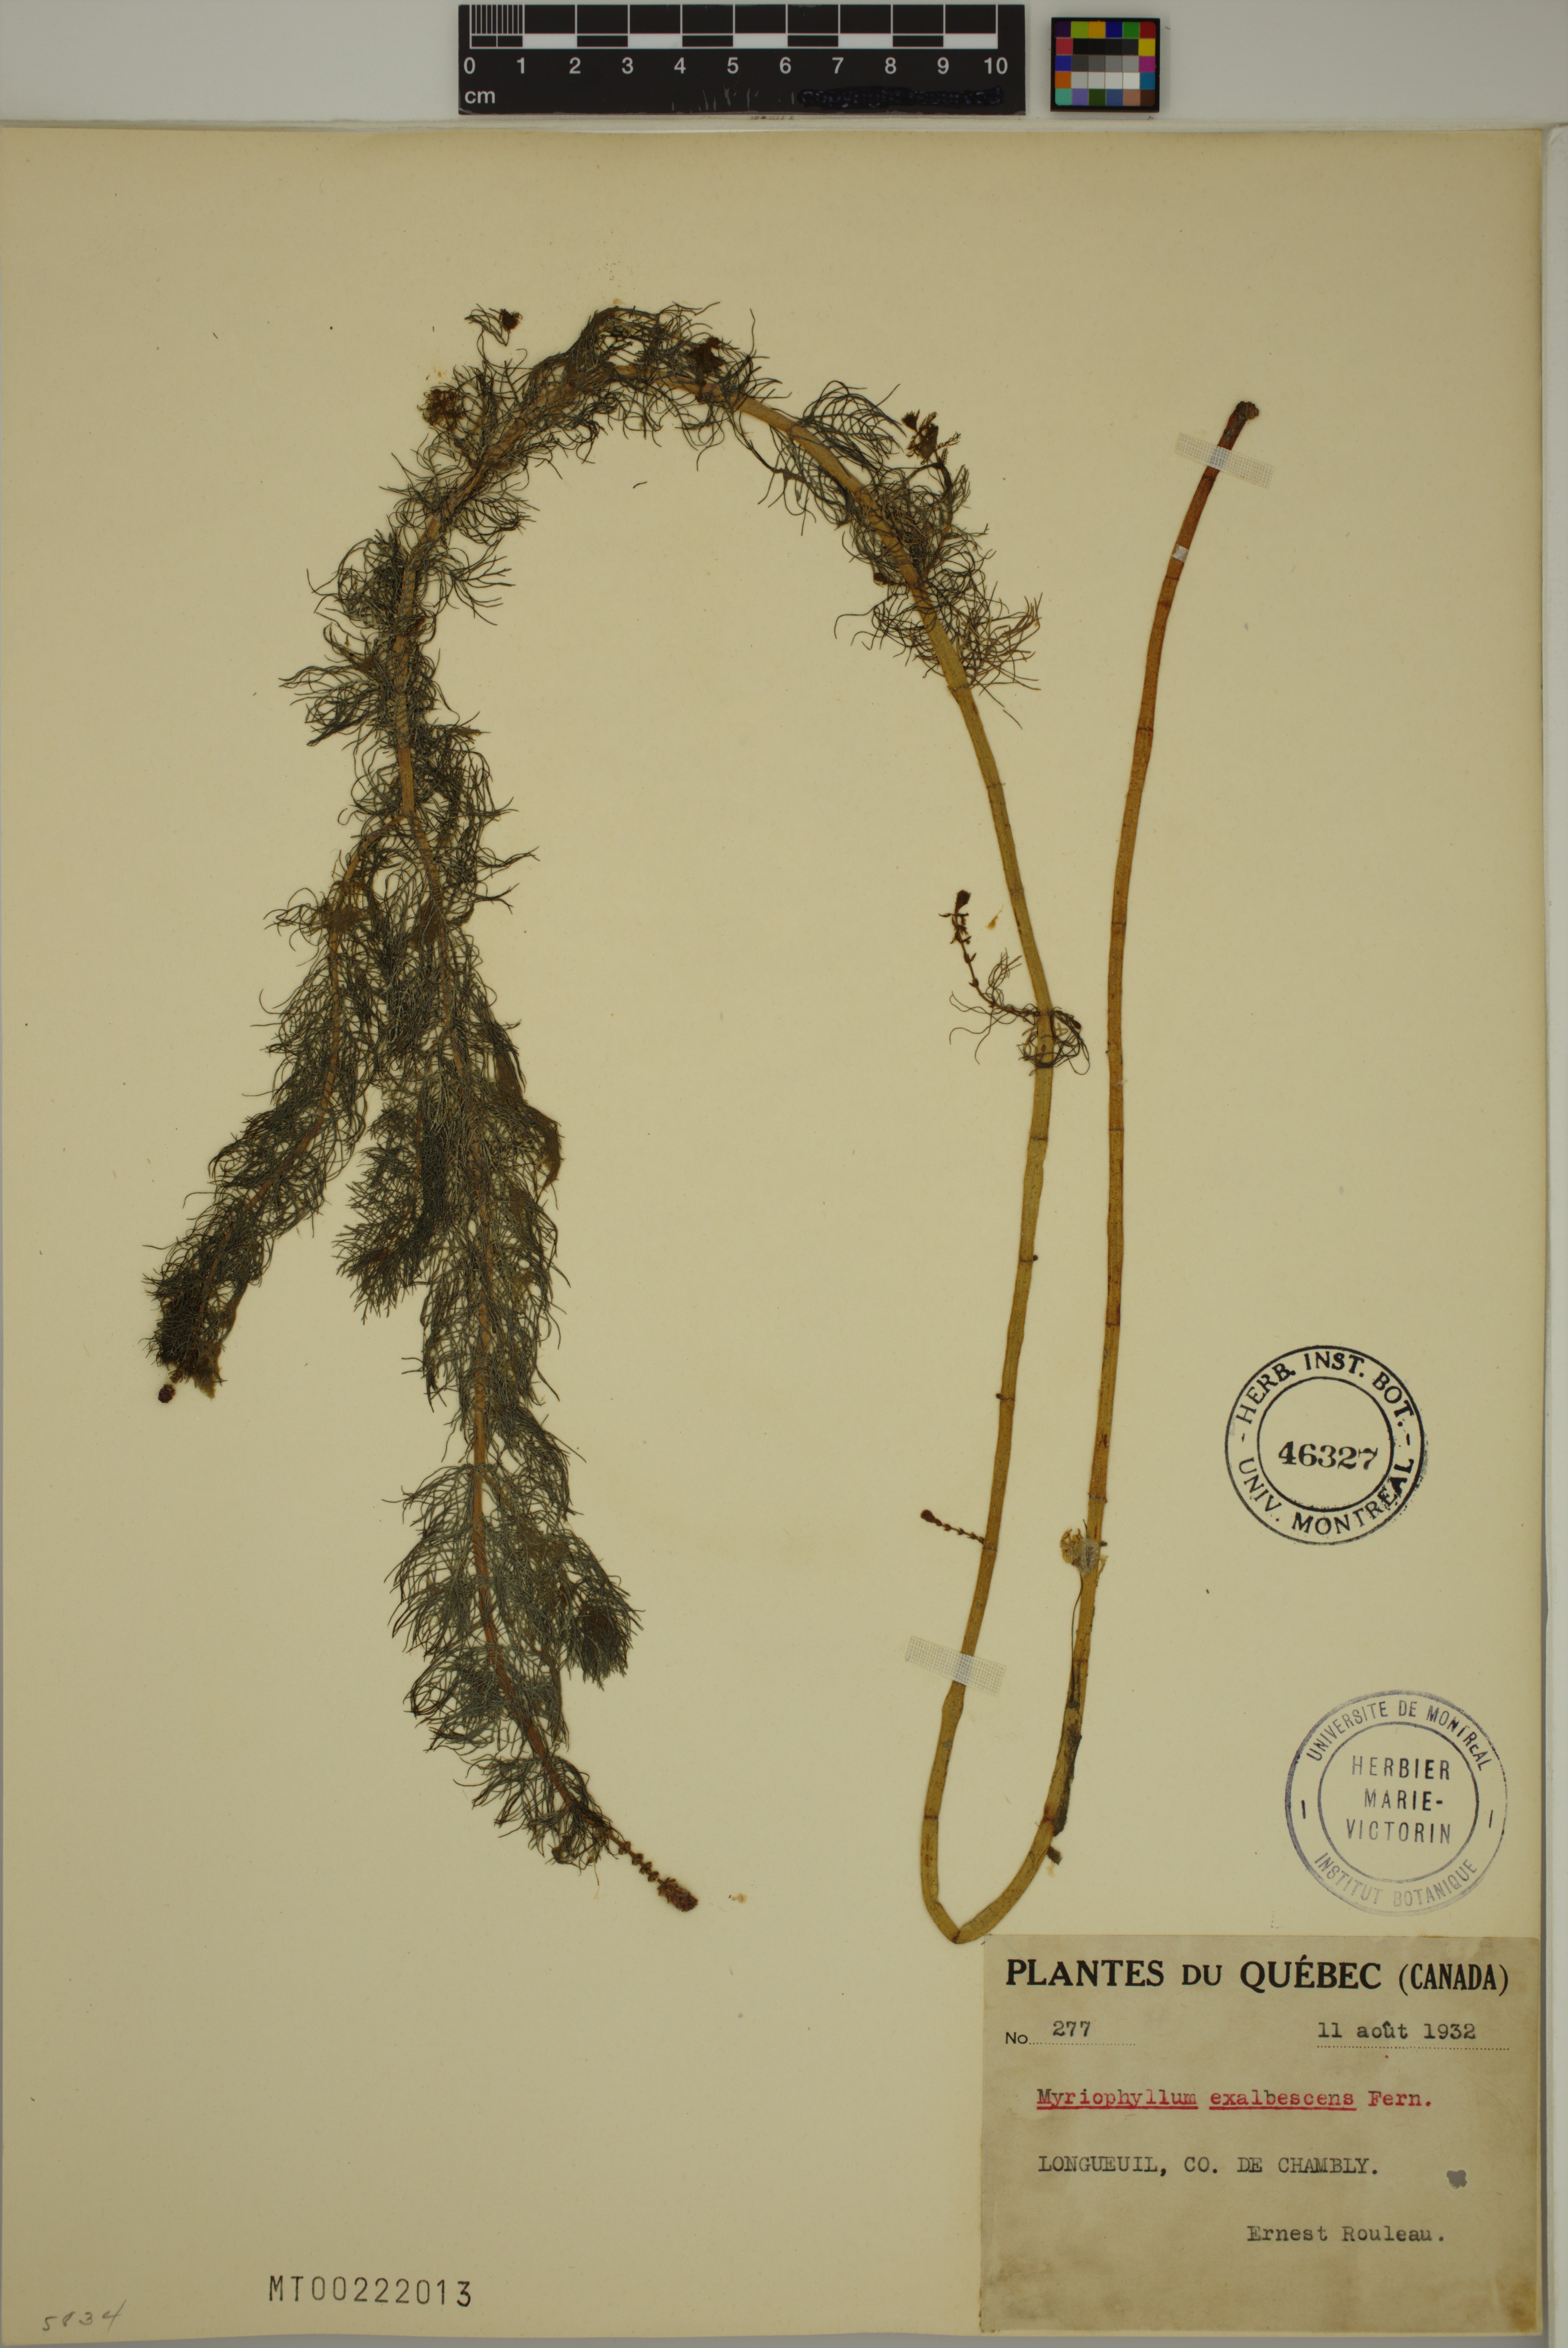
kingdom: Plantae
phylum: Tracheophyta
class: Magnoliopsida
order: Saxifragales
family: Haloragaceae
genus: Myriophyllum
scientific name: Myriophyllum sibiricum
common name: Siberian water-milfoil
